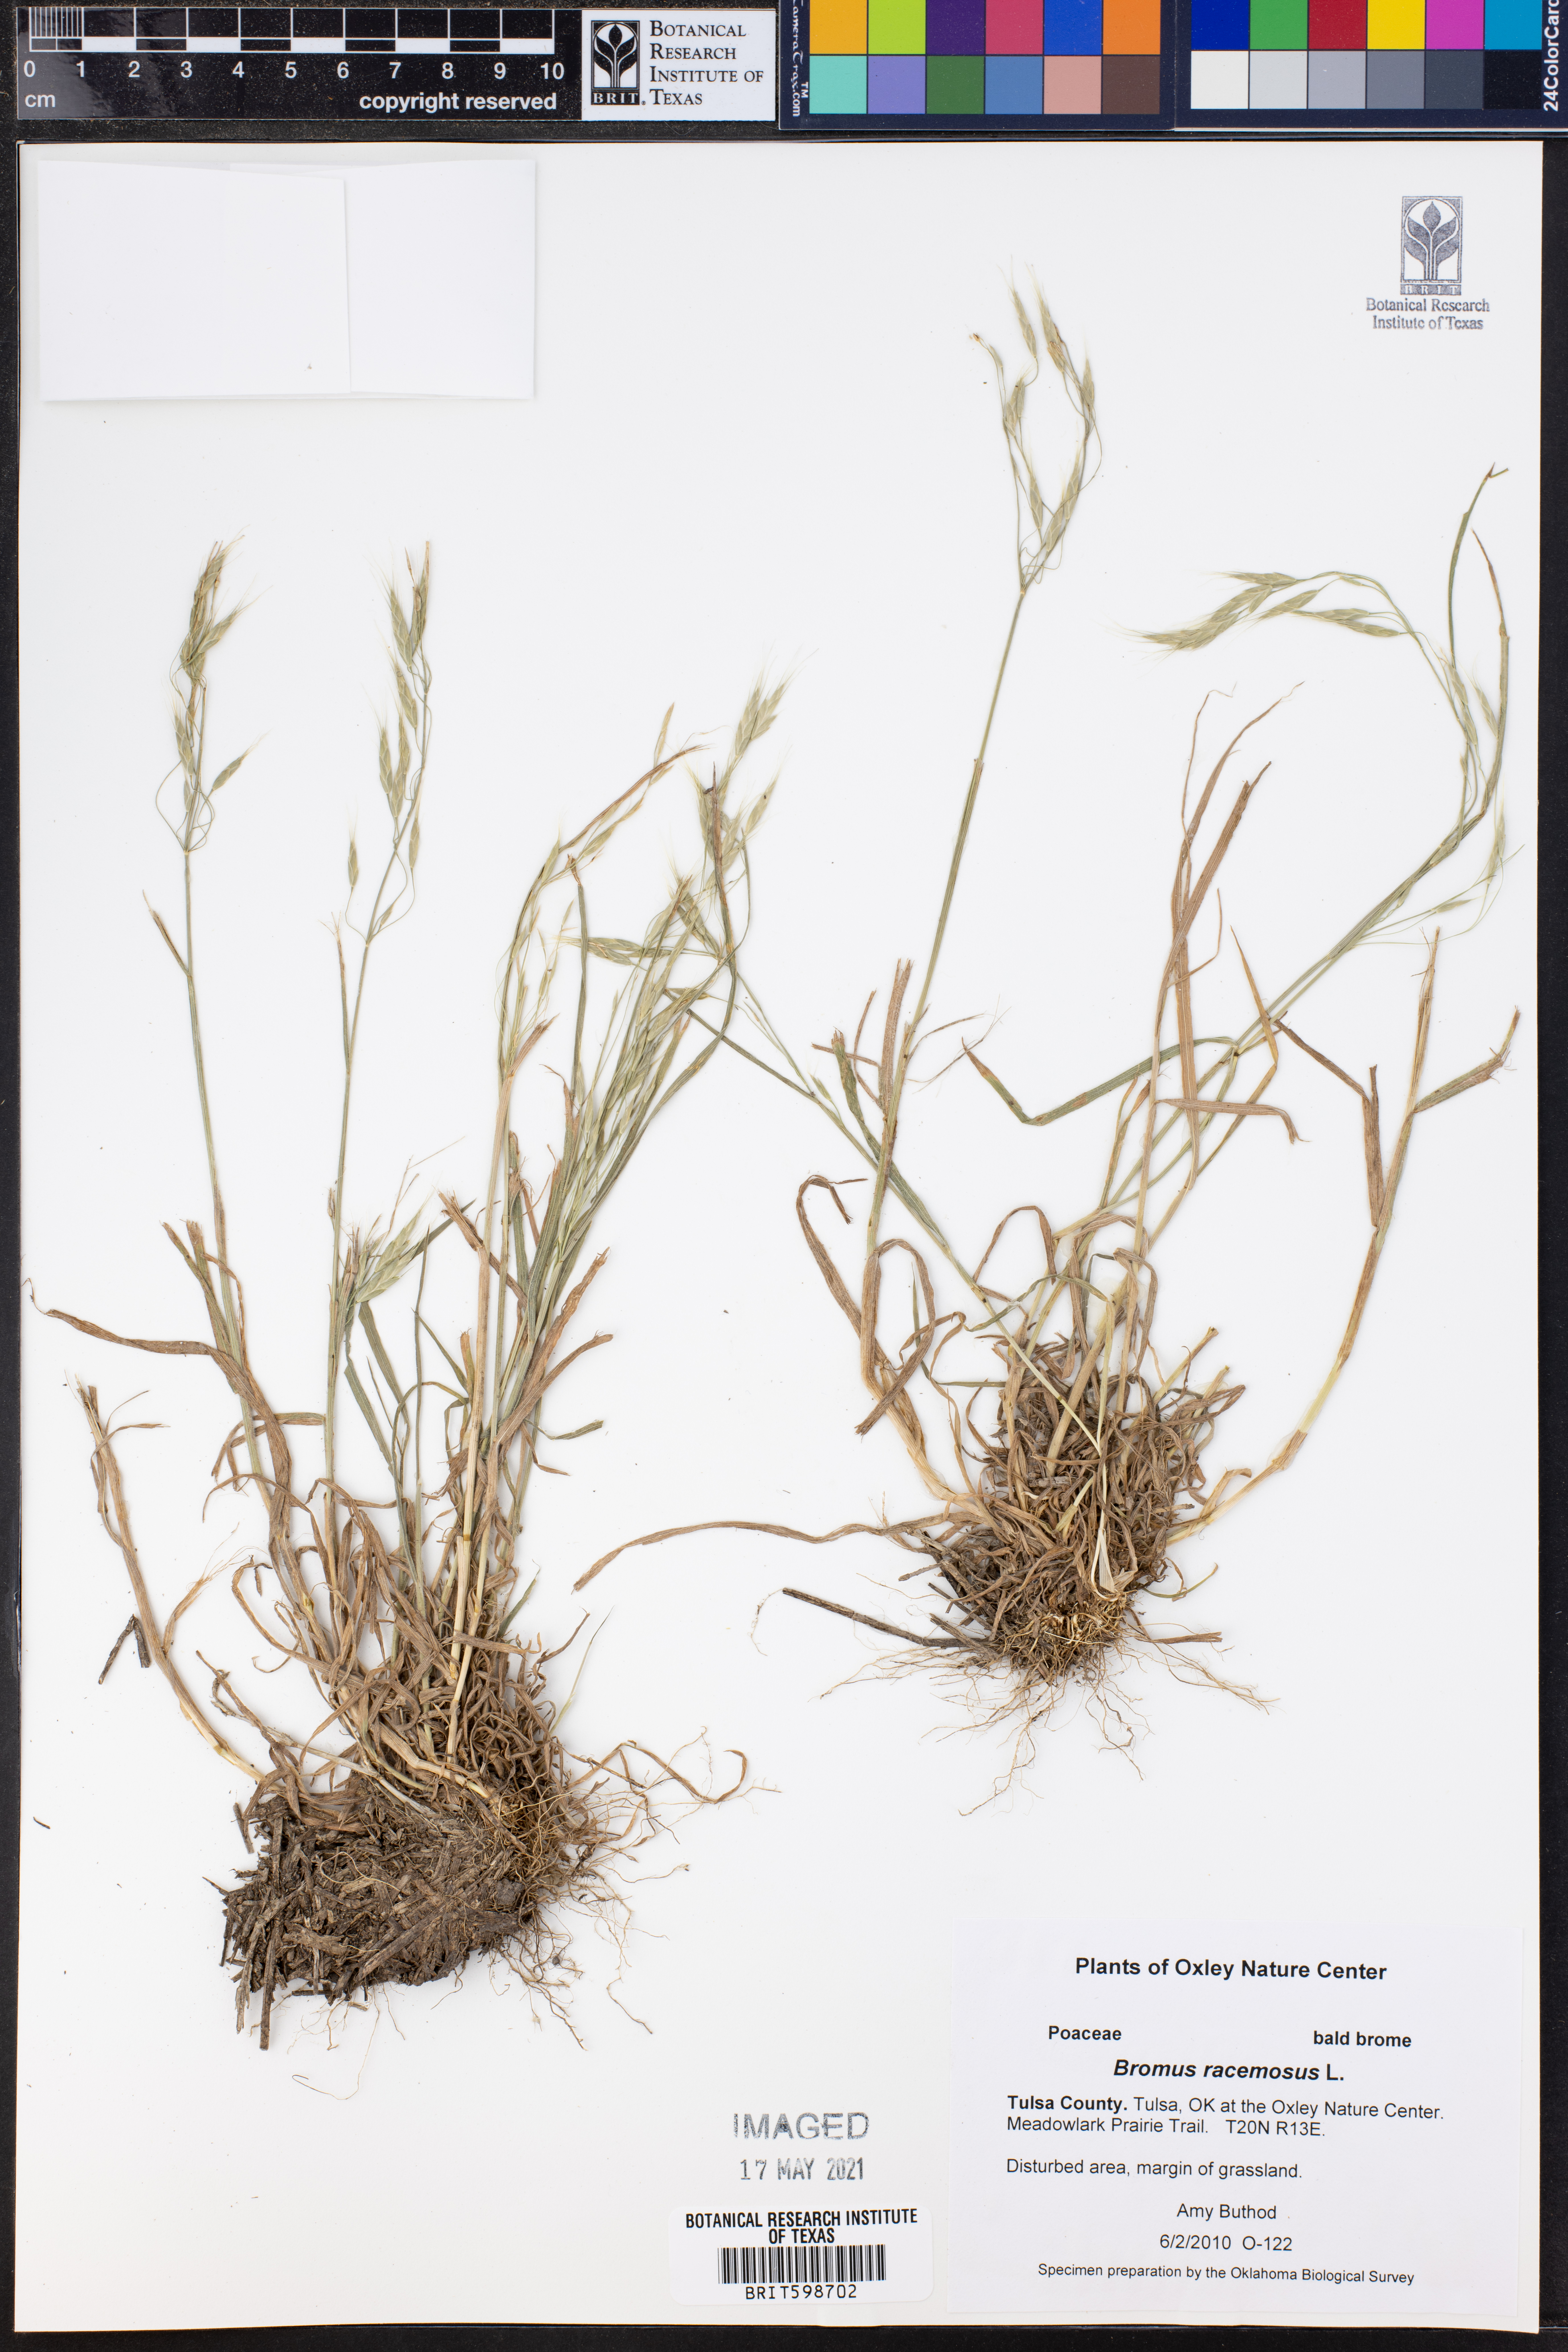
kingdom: Plantae
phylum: Tracheophyta
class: Liliopsida
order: Poales
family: Poaceae
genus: Bromus
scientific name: Bromus racemosus
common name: Bald brome
